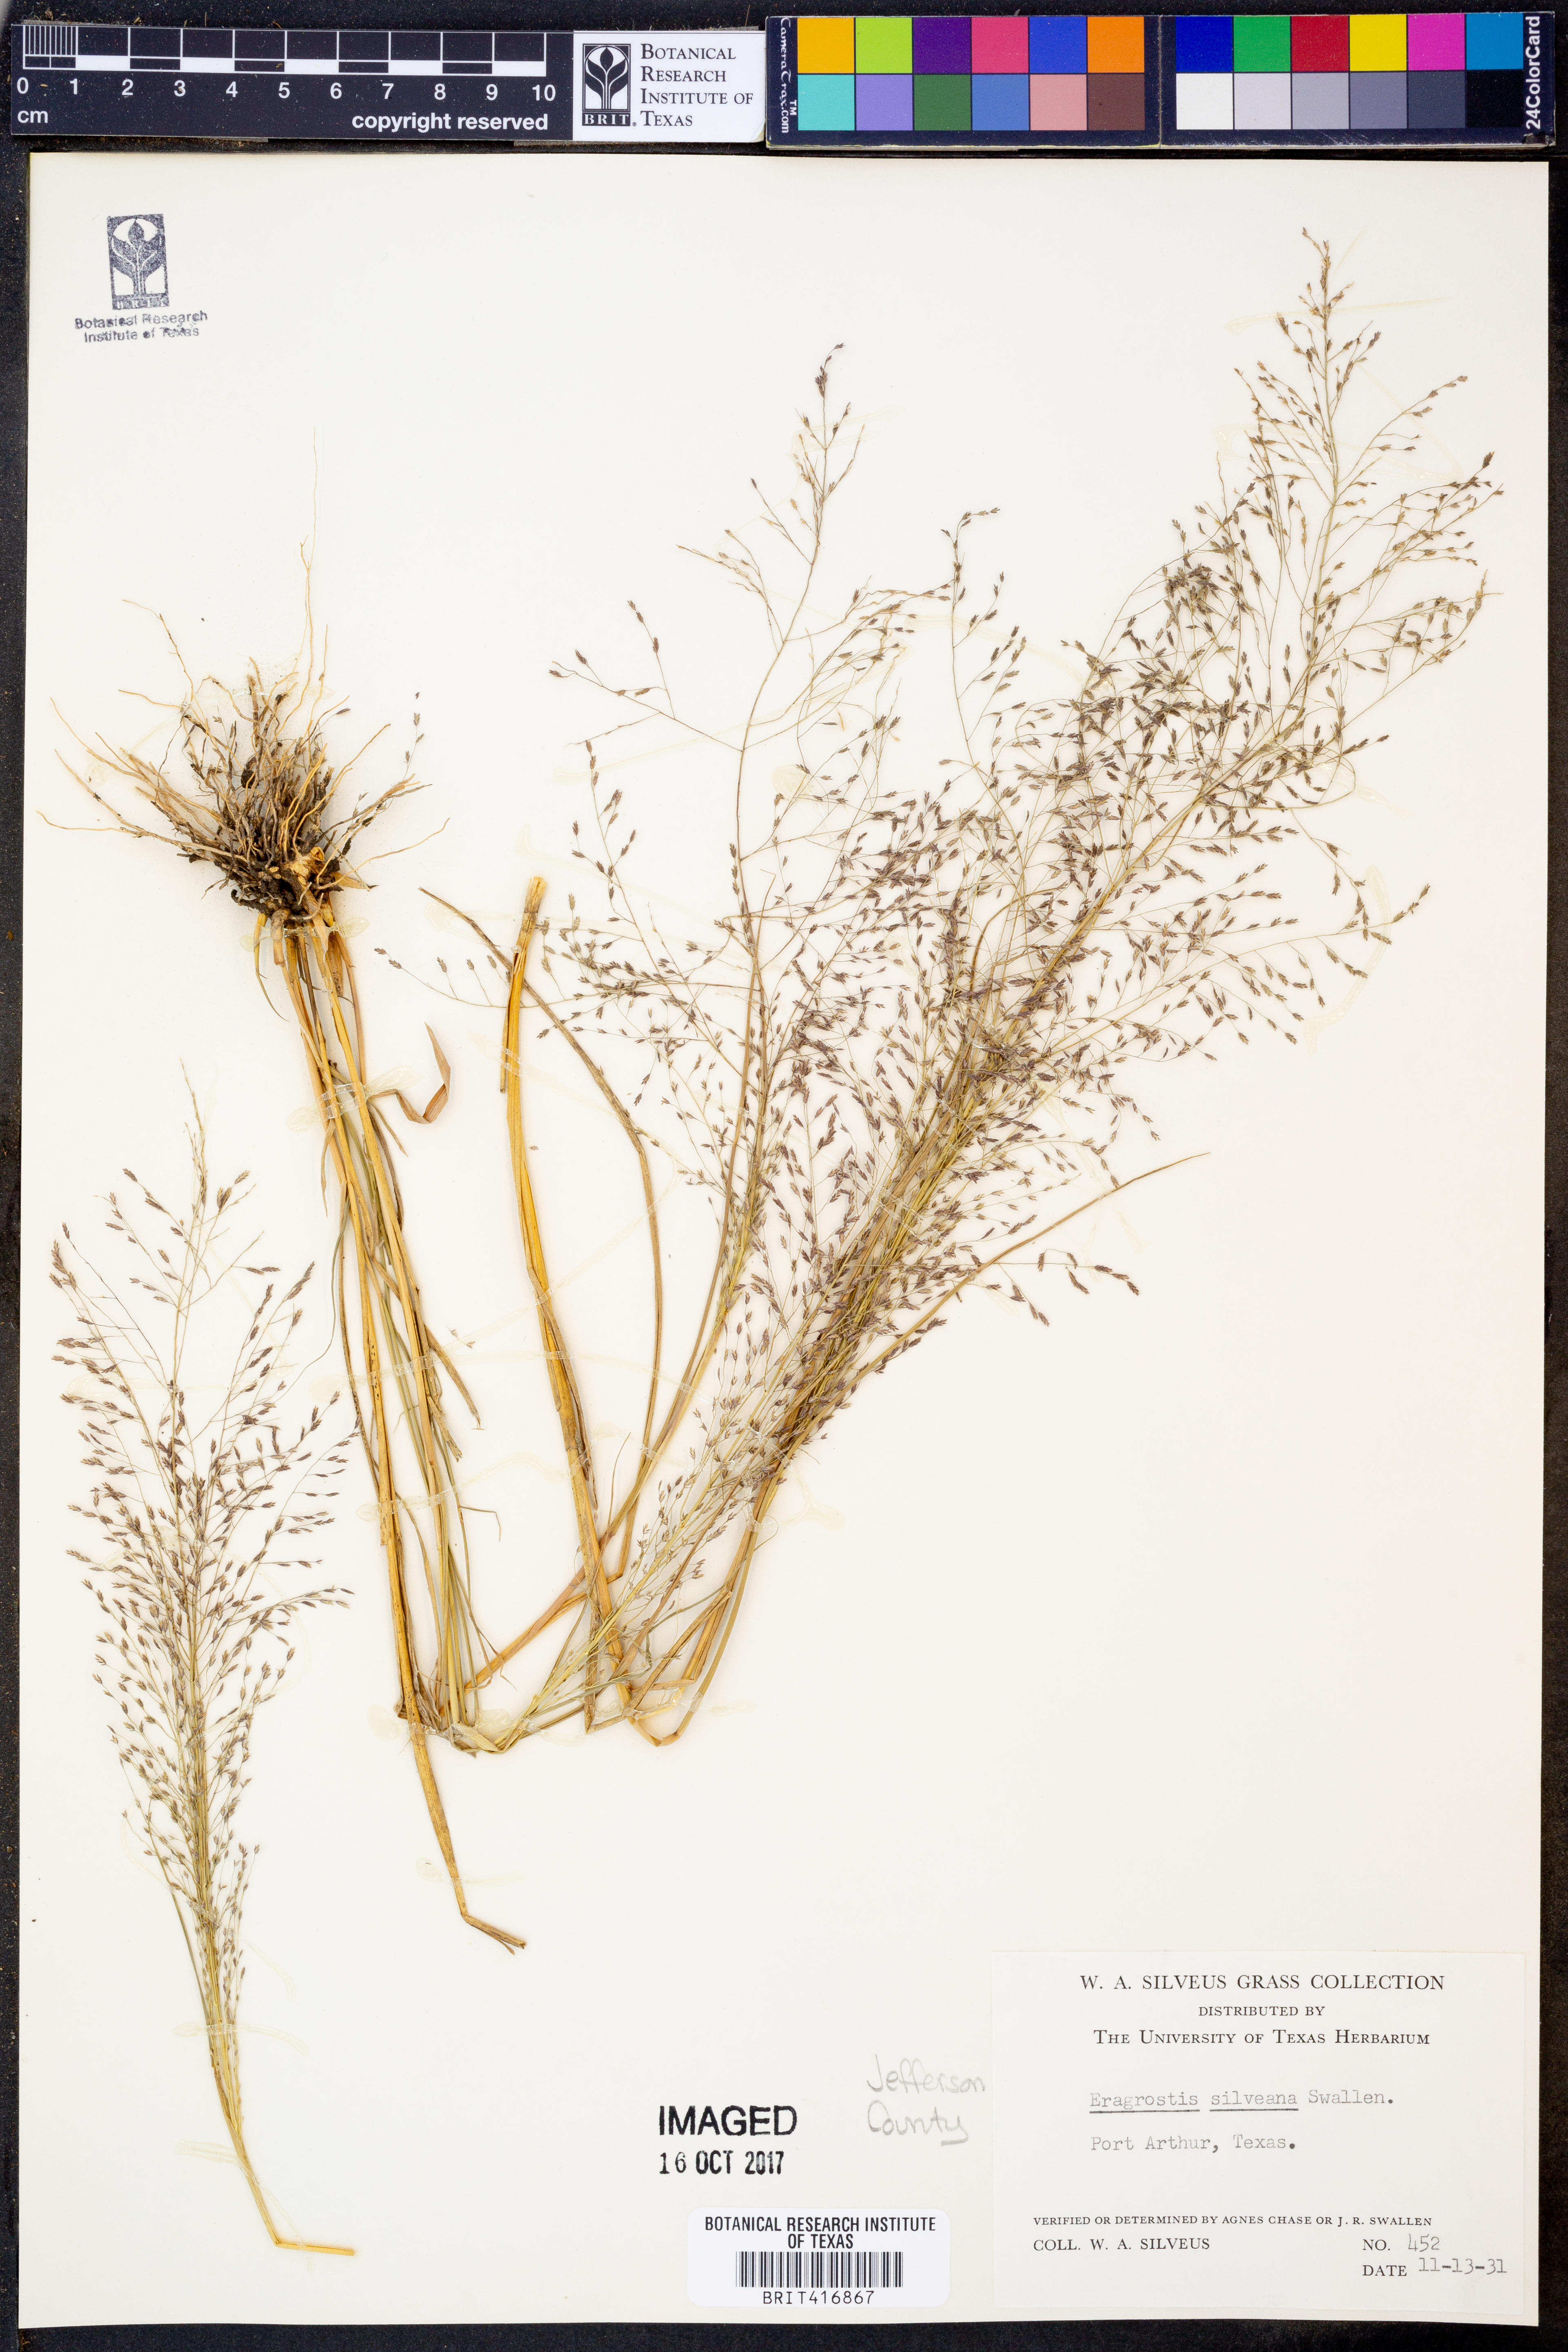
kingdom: Plantae
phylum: Tracheophyta
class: Liliopsida
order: Poales
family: Poaceae
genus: Eragrostis
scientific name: Eragrostis silveana
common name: Silveus' lovegrass
